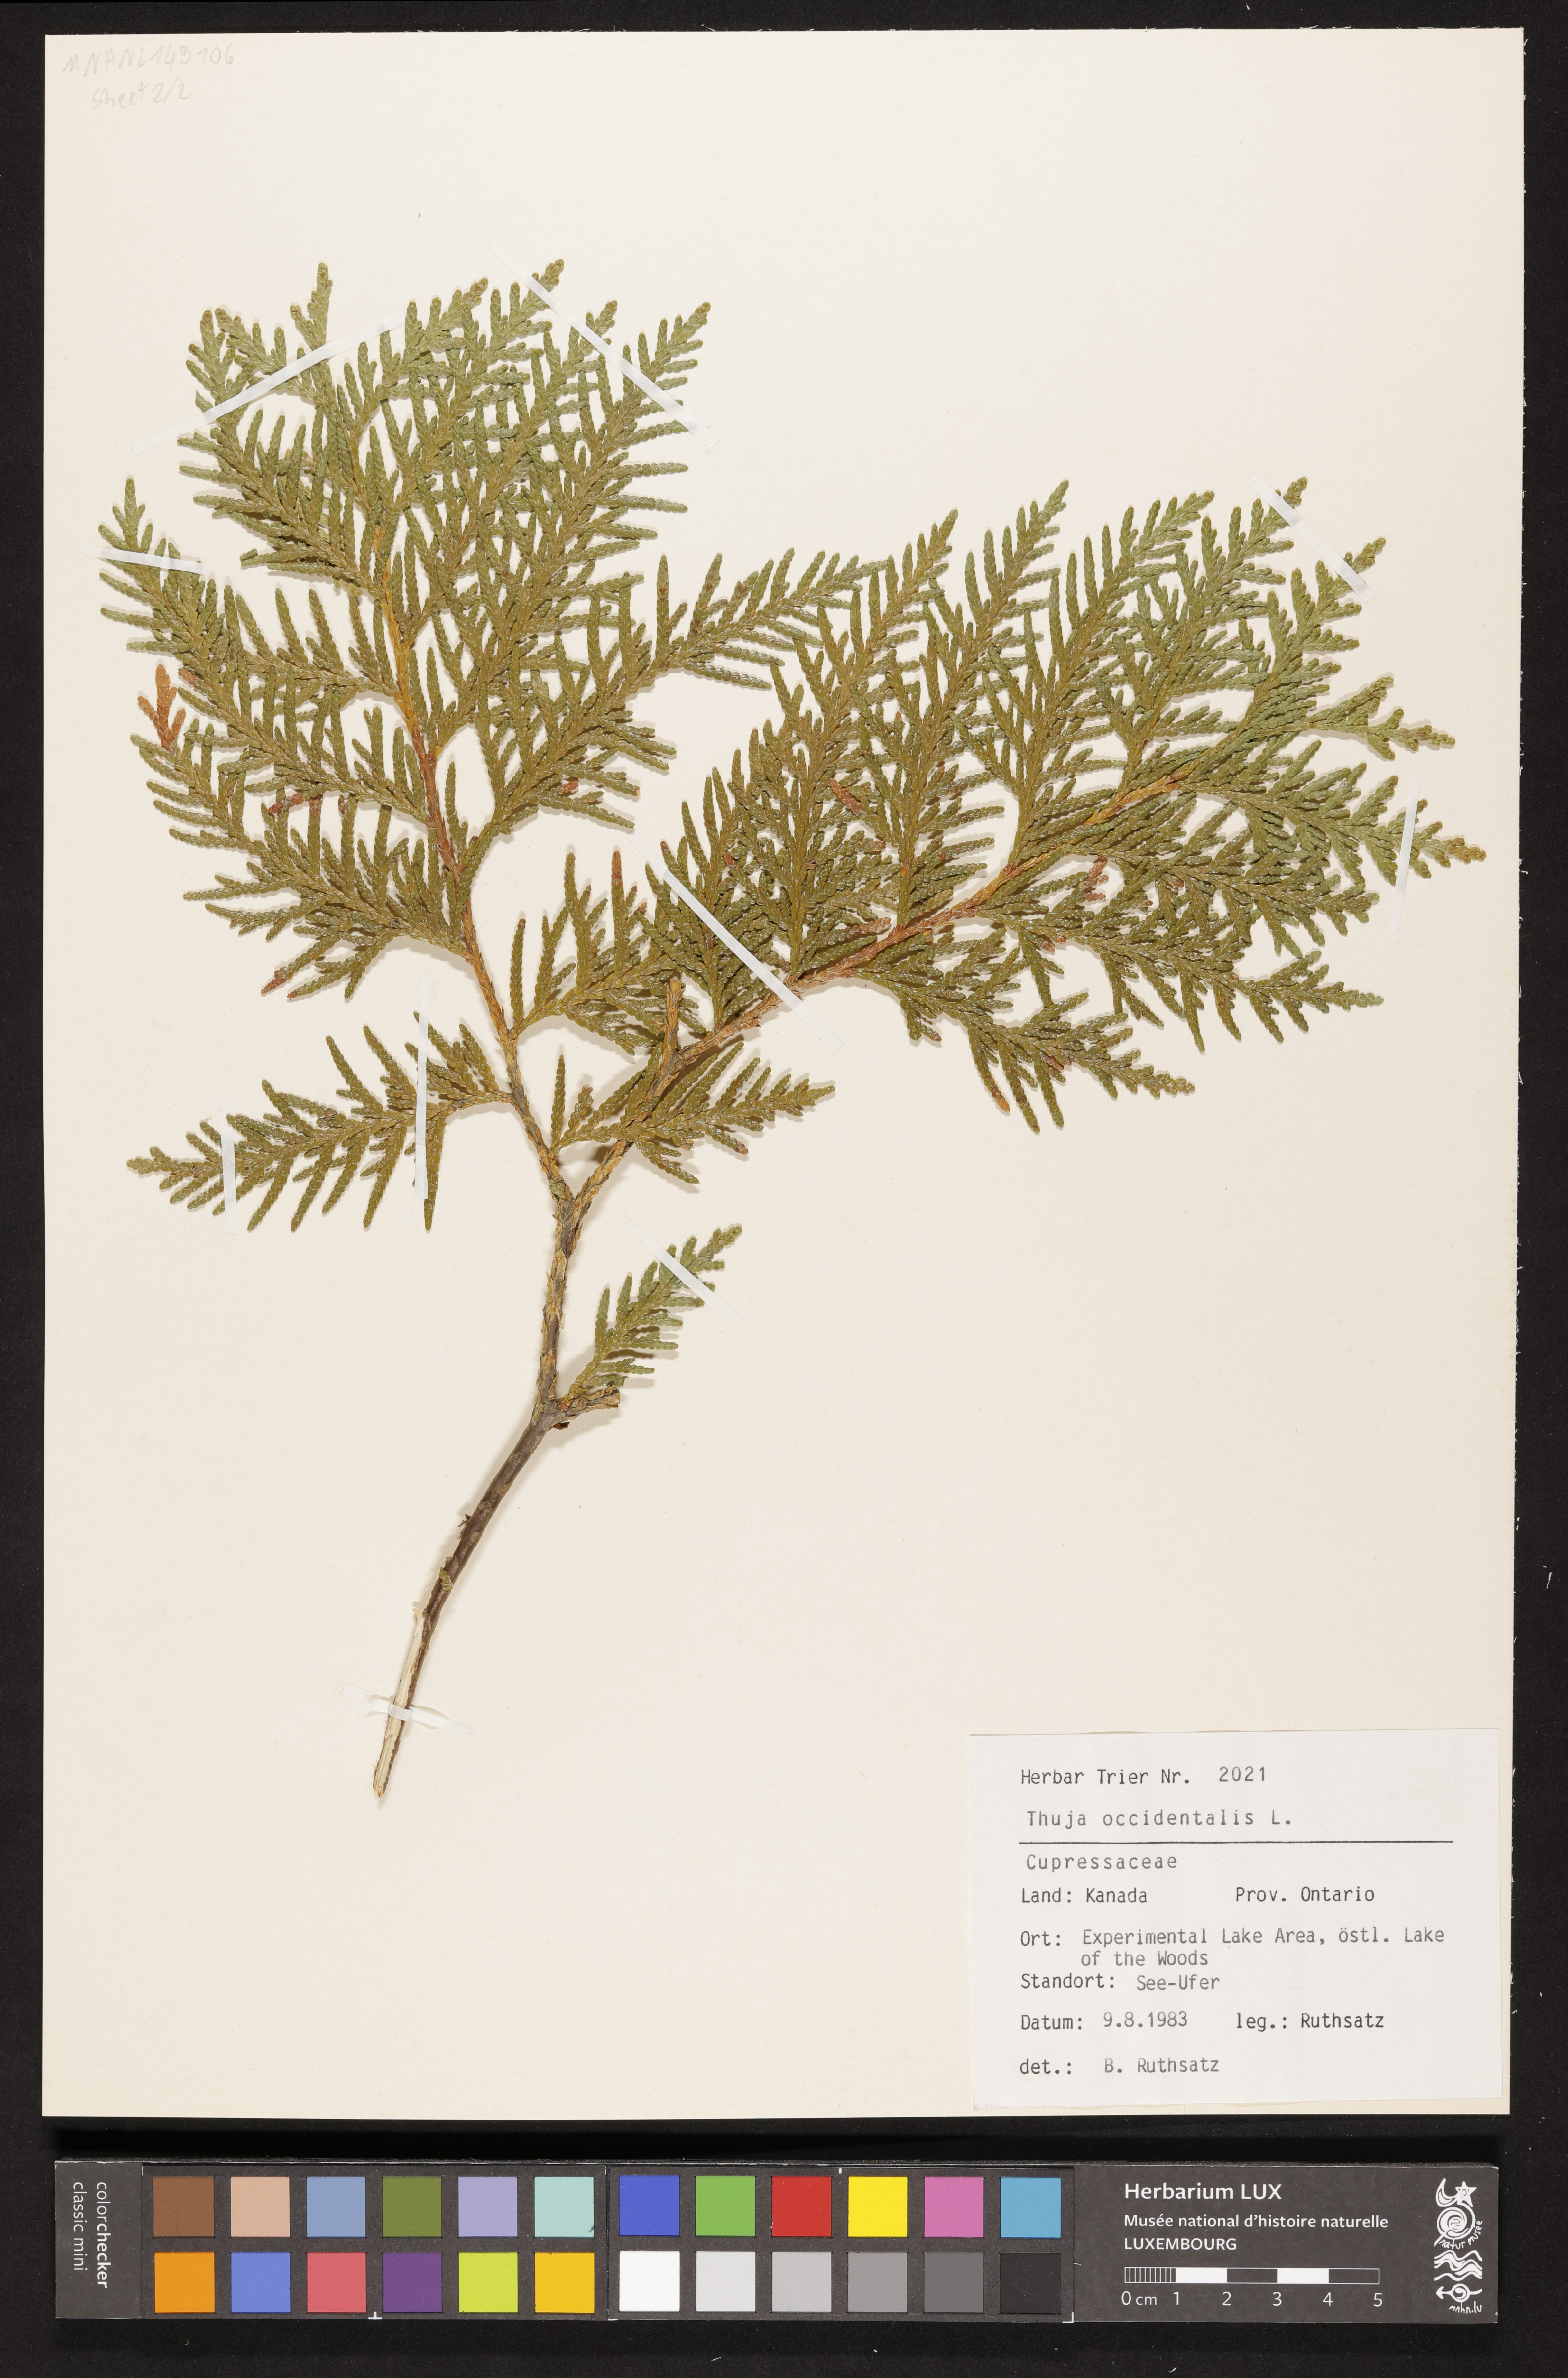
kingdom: Plantae
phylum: Tracheophyta
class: Pinopsida
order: Pinales
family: Cupressaceae
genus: Thuja
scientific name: Thuja occidentalis
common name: Northern white-cedar
